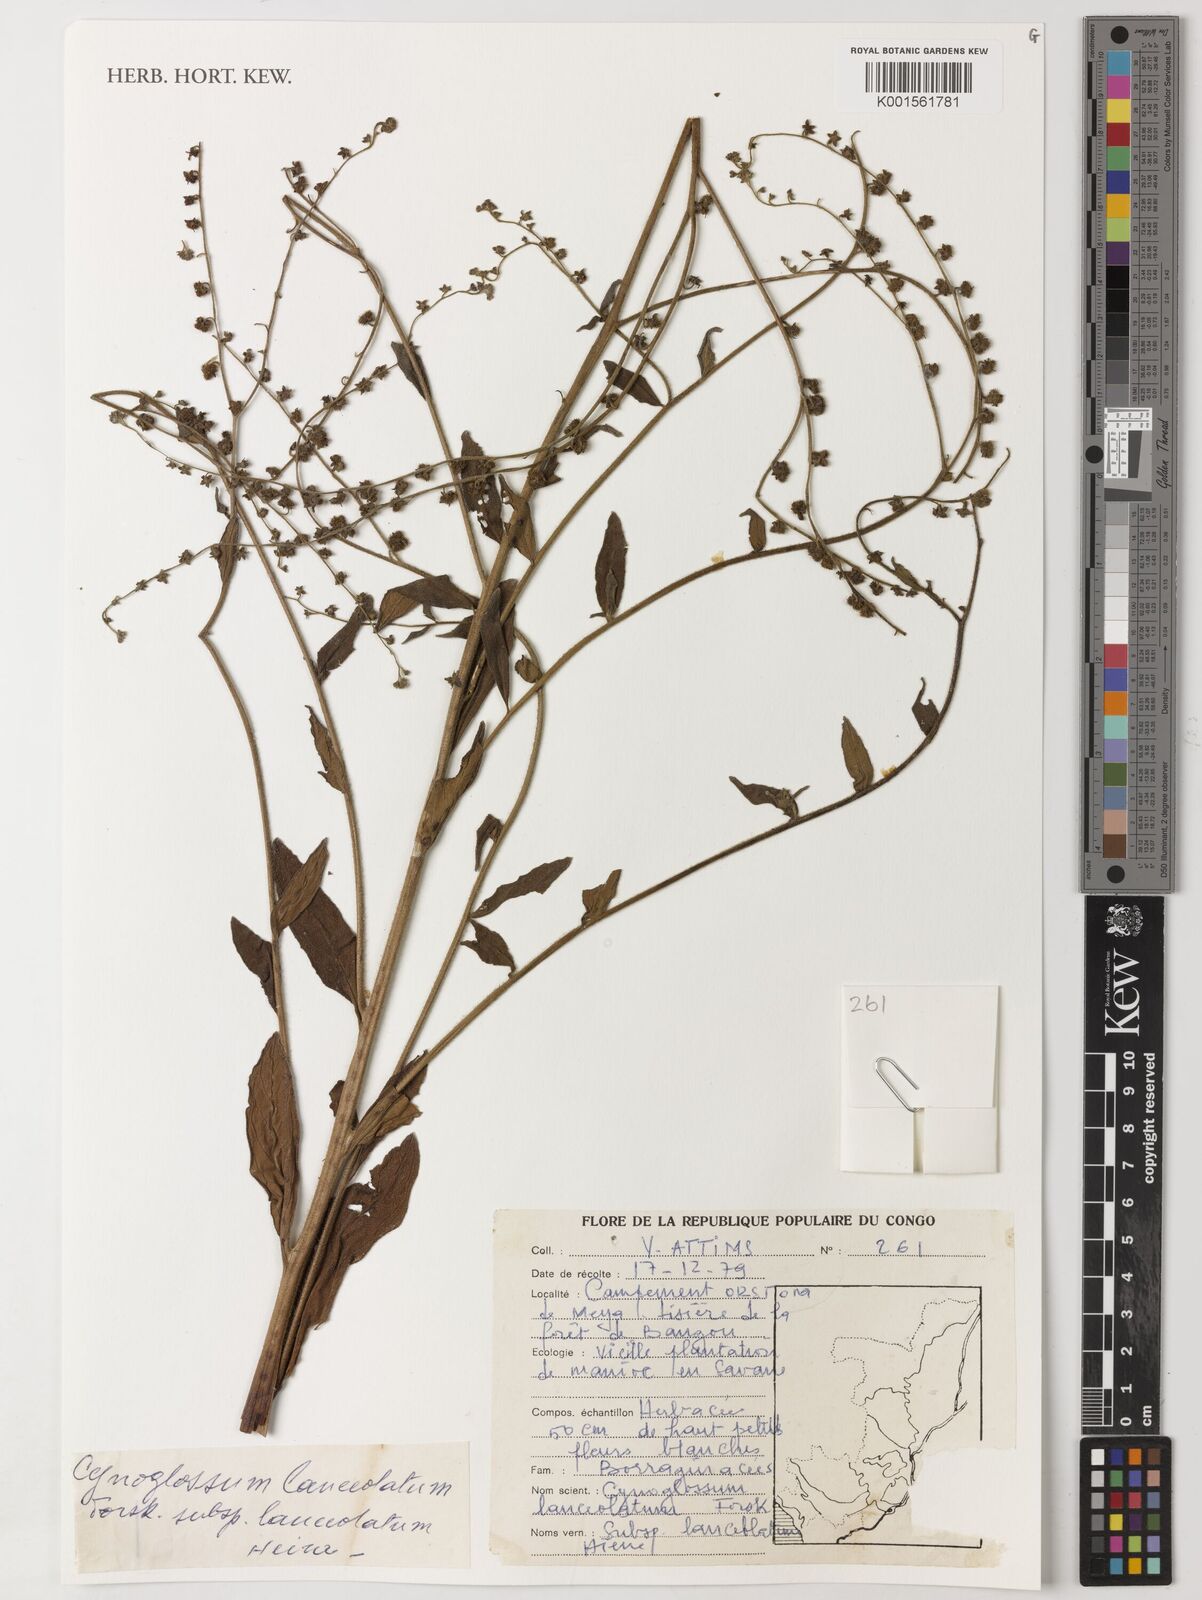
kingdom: Plantae
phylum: Tracheophyta
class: Magnoliopsida
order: Boraginales
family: Boraginaceae
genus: Paracynoglossum
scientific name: Paracynoglossum lanceolatum
